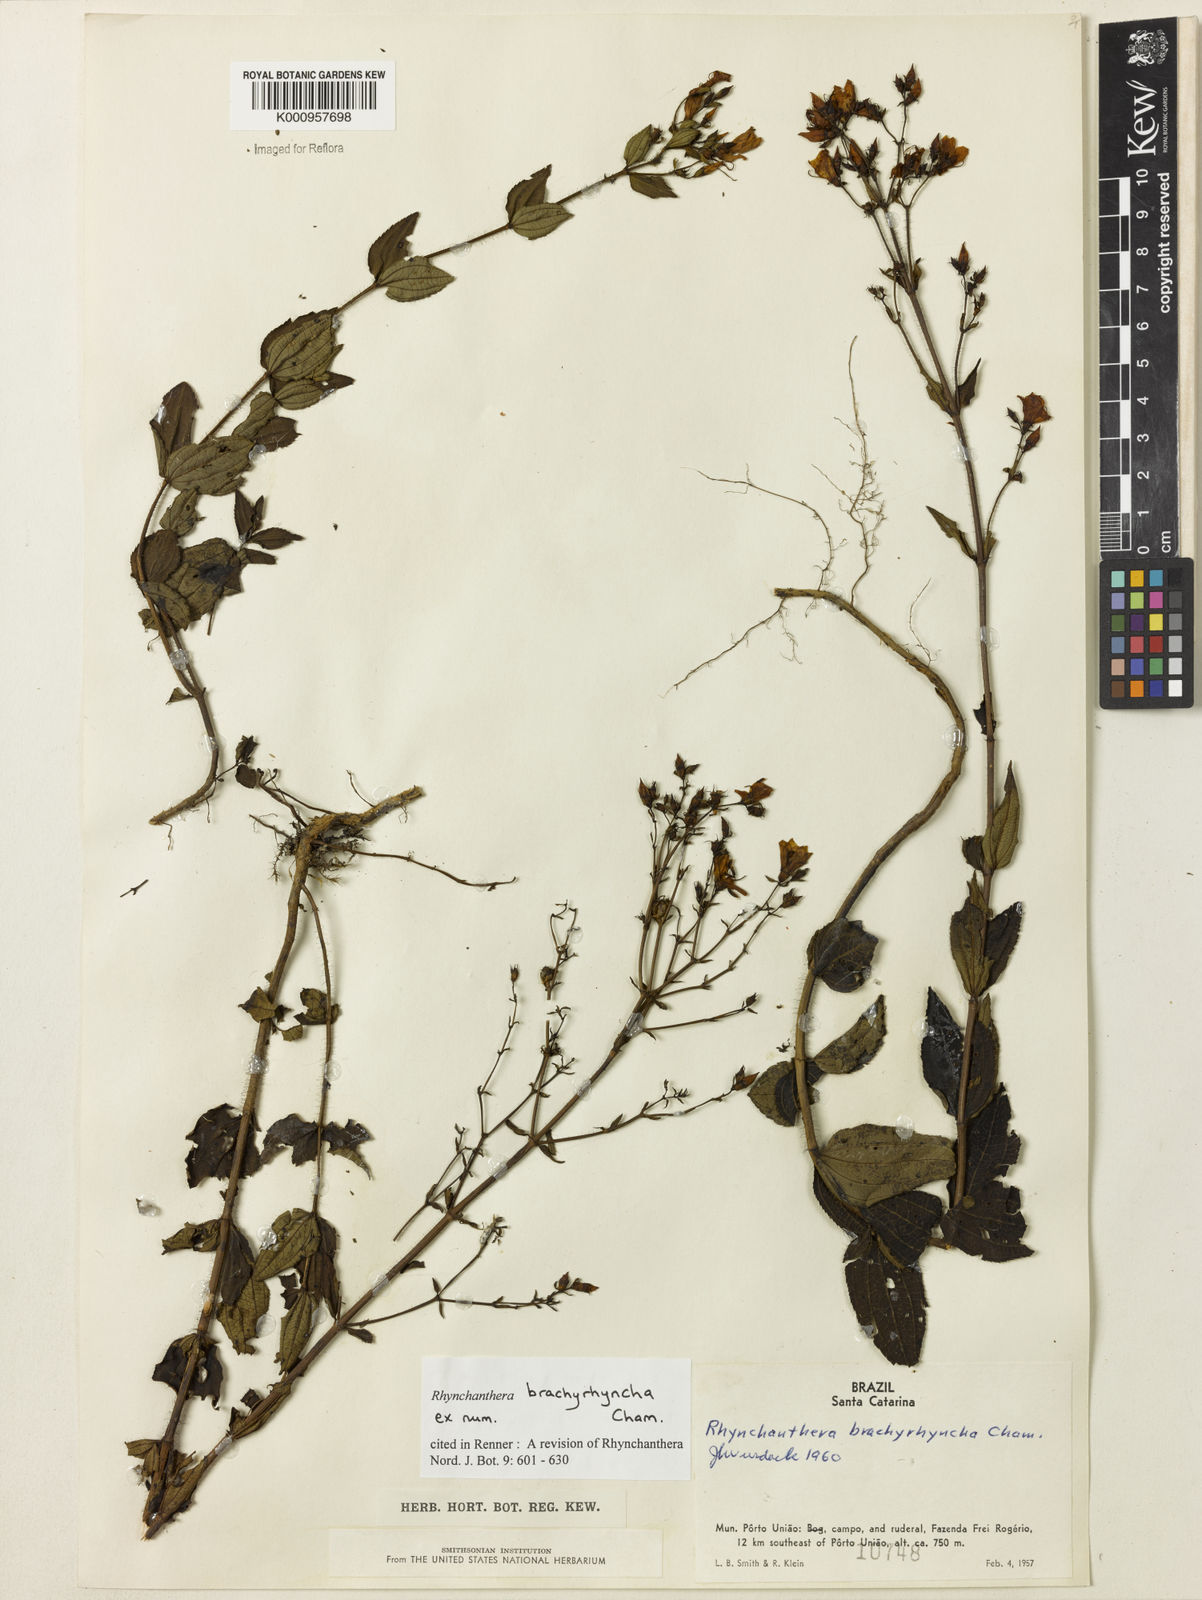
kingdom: Plantae
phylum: Tracheophyta
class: Magnoliopsida
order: Myrtales
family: Melastomataceae
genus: Rhynchanthera
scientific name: Rhynchanthera brachyrhyncha
